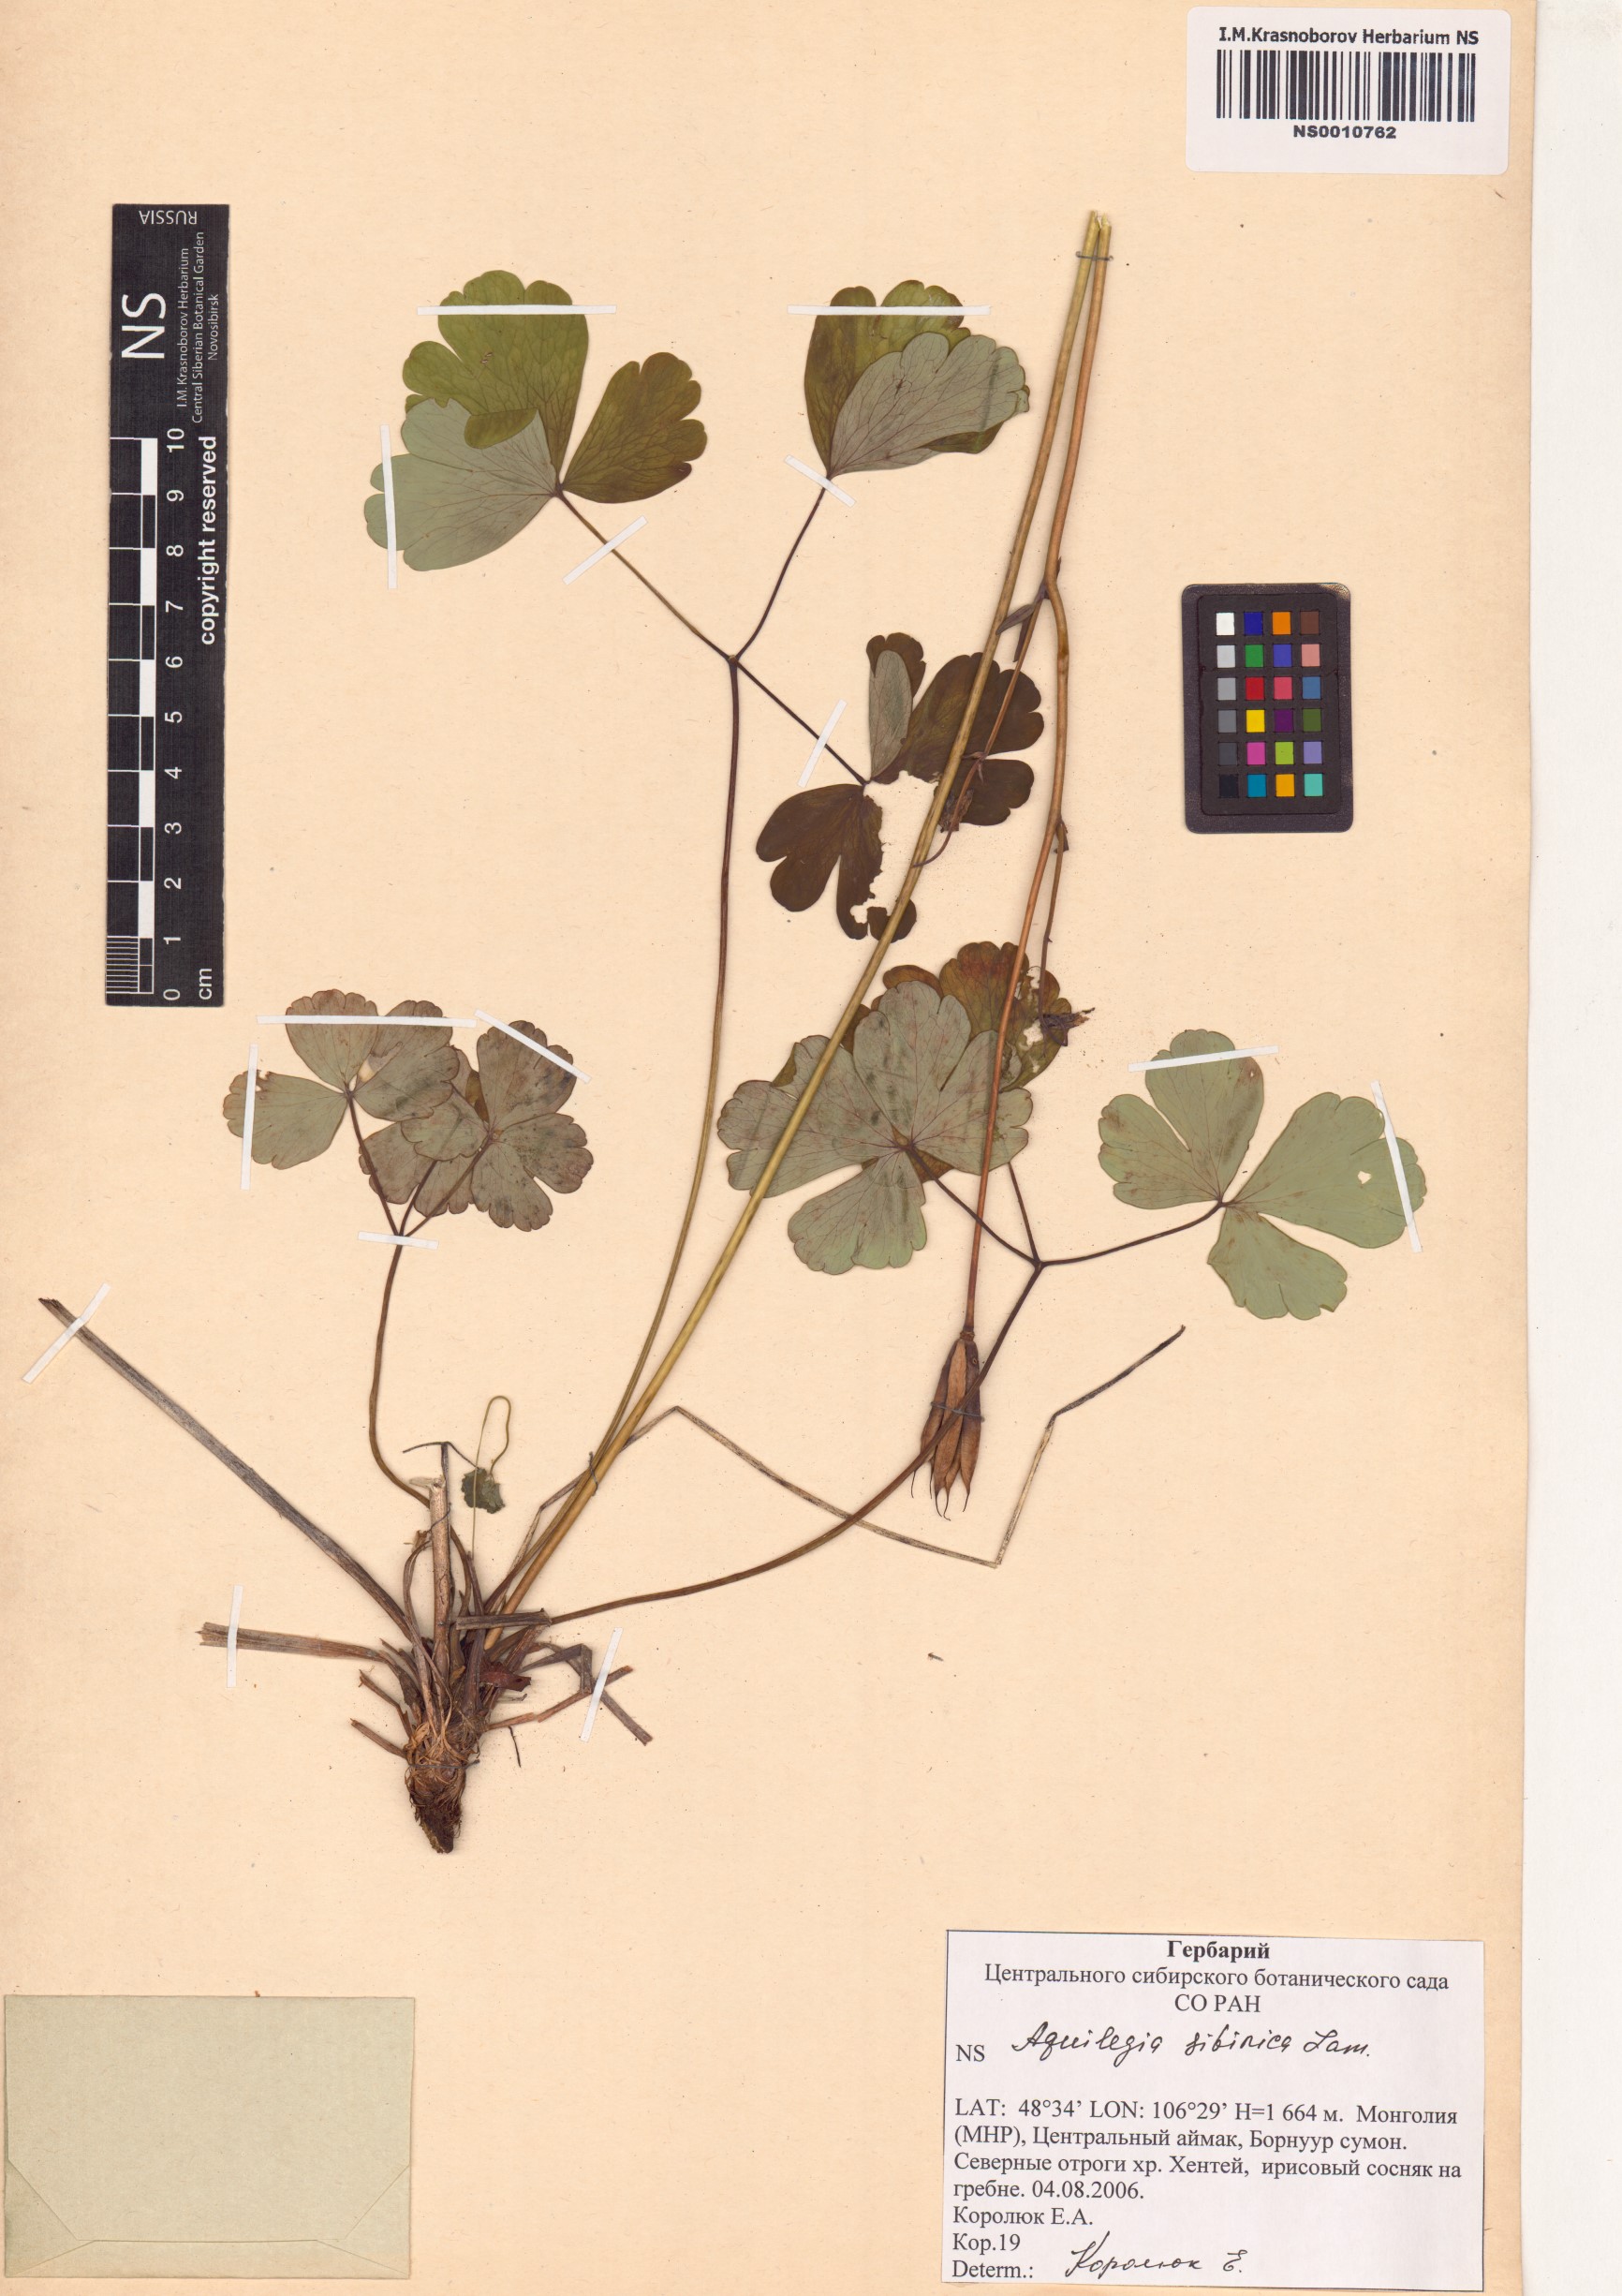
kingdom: Plantae
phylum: Tracheophyta
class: Magnoliopsida
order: Ranunculales
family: Ranunculaceae
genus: Aquilegia
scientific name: Aquilegia sibirica
